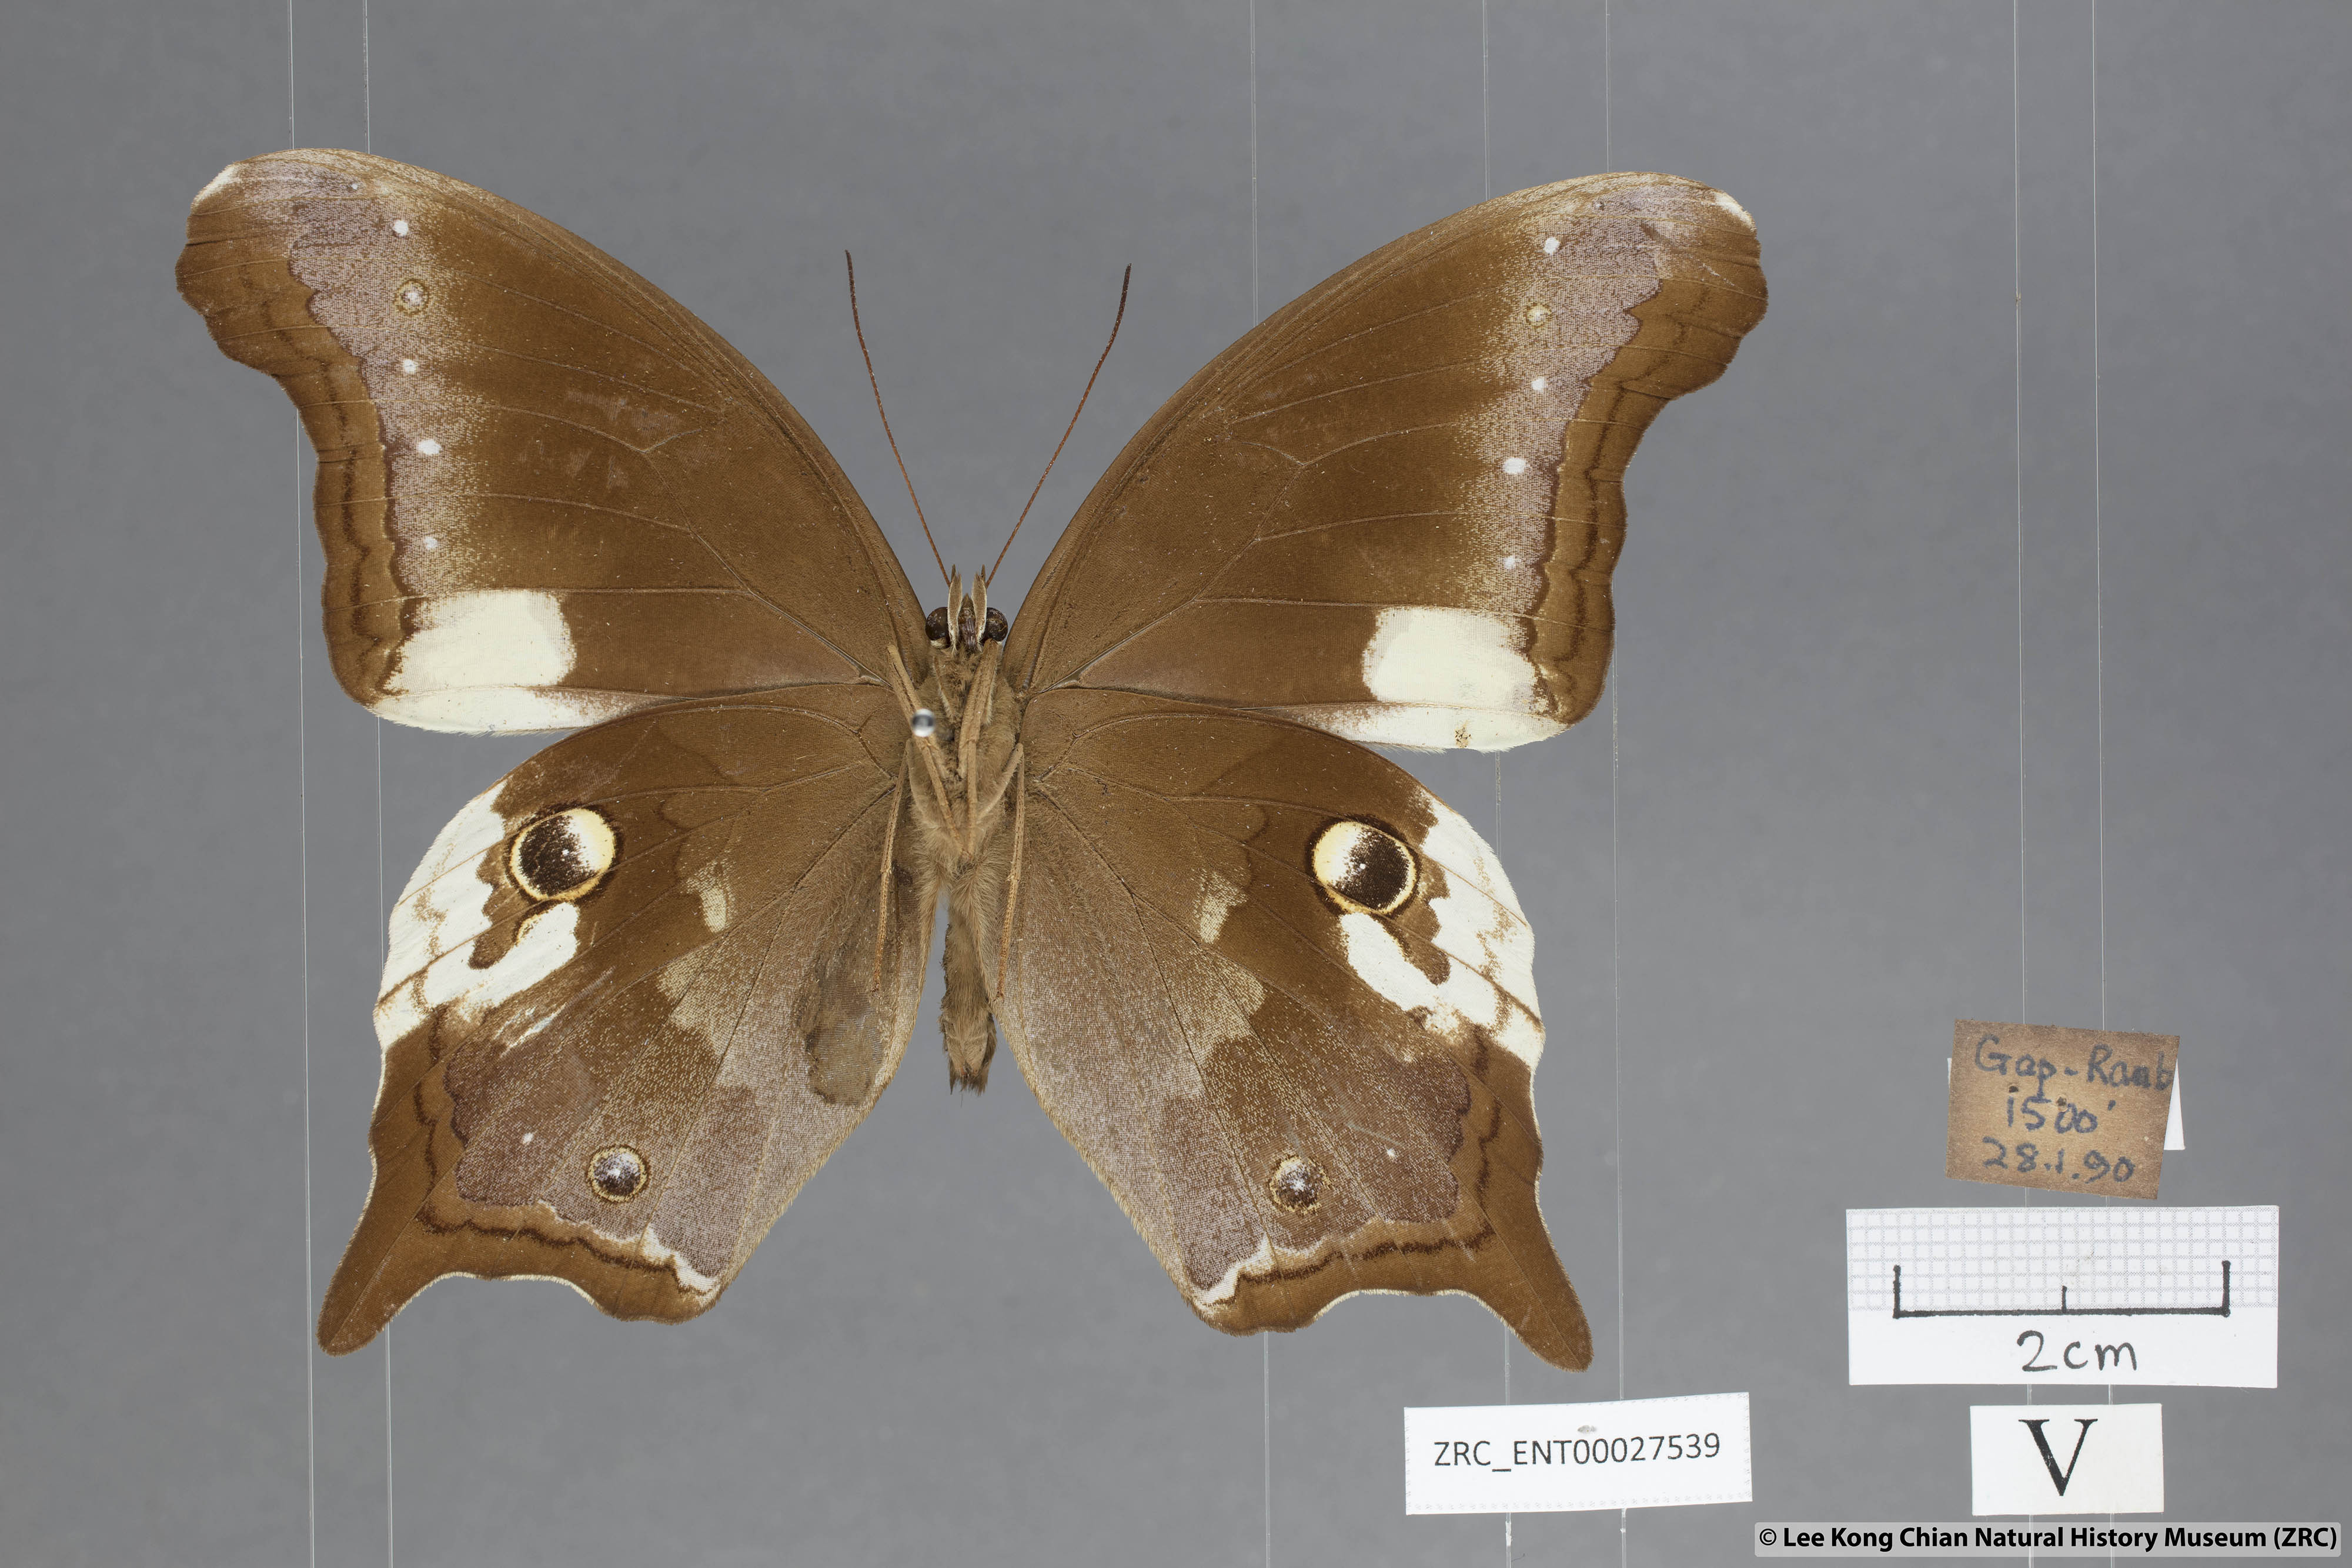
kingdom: Animalia
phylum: Arthropoda
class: Insecta
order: Lepidoptera
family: Nymphalidae
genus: Neorina
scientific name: Neorina lowii
